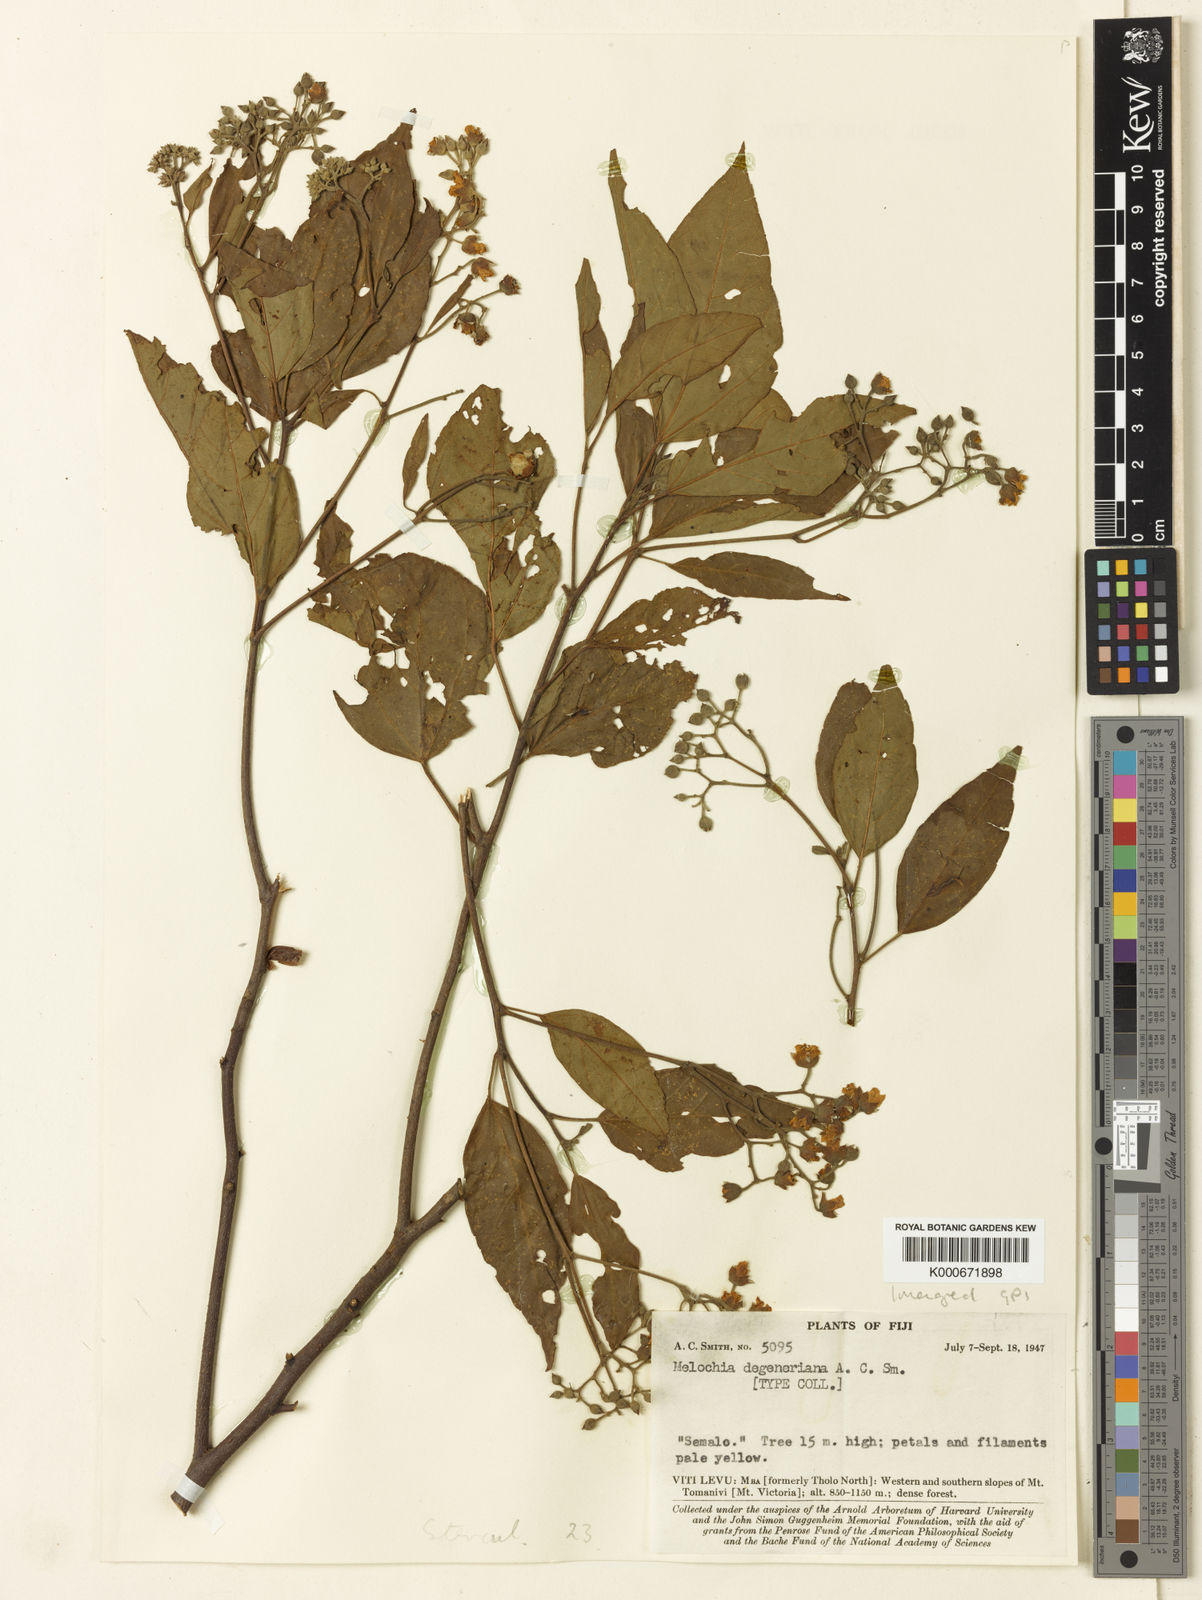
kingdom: Plantae
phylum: Tracheophyta
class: Magnoliopsida
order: Malvales
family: Malvaceae
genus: Melochia
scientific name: Melochia degeneriana
